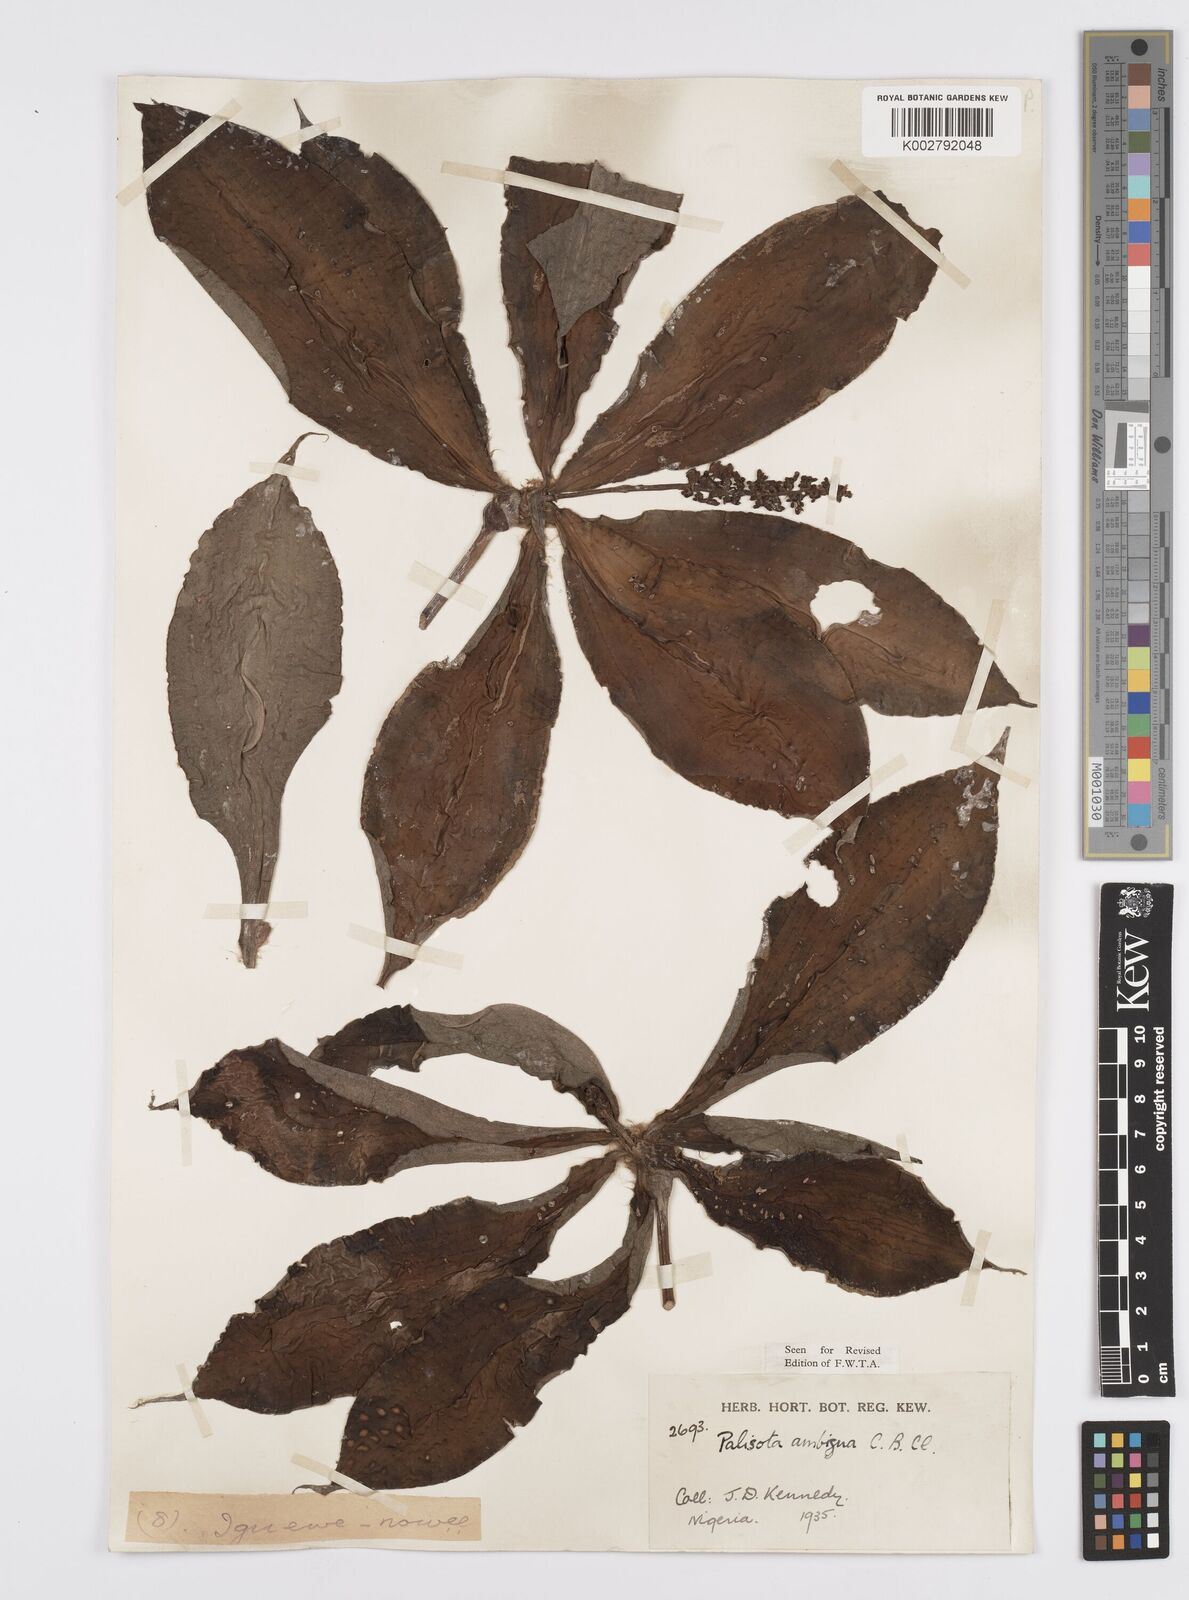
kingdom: Plantae
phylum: Tracheophyta
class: Liliopsida
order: Commelinales
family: Commelinaceae
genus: Palisota
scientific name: Palisota ambigua
